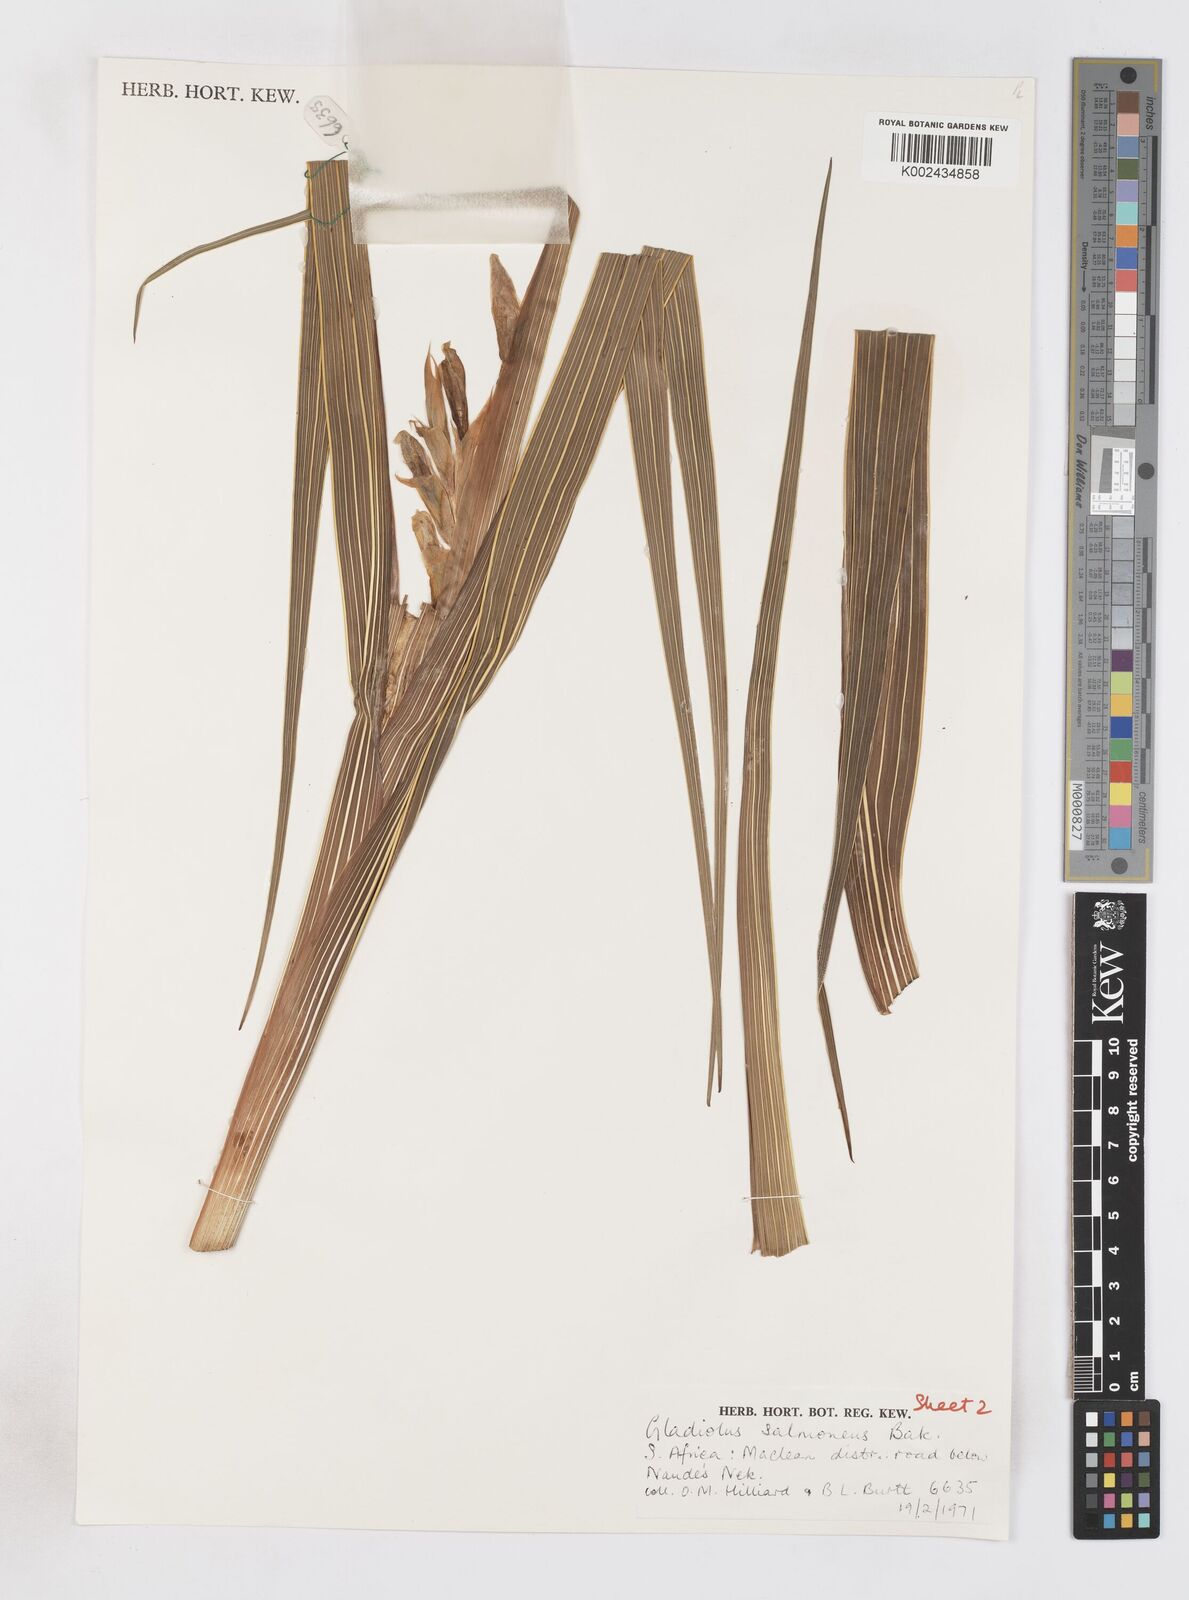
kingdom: Plantae
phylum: Tracheophyta
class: Liliopsida
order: Asparagales
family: Iridaceae
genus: Gladiolus
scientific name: Gladiolus oppositiflorus
